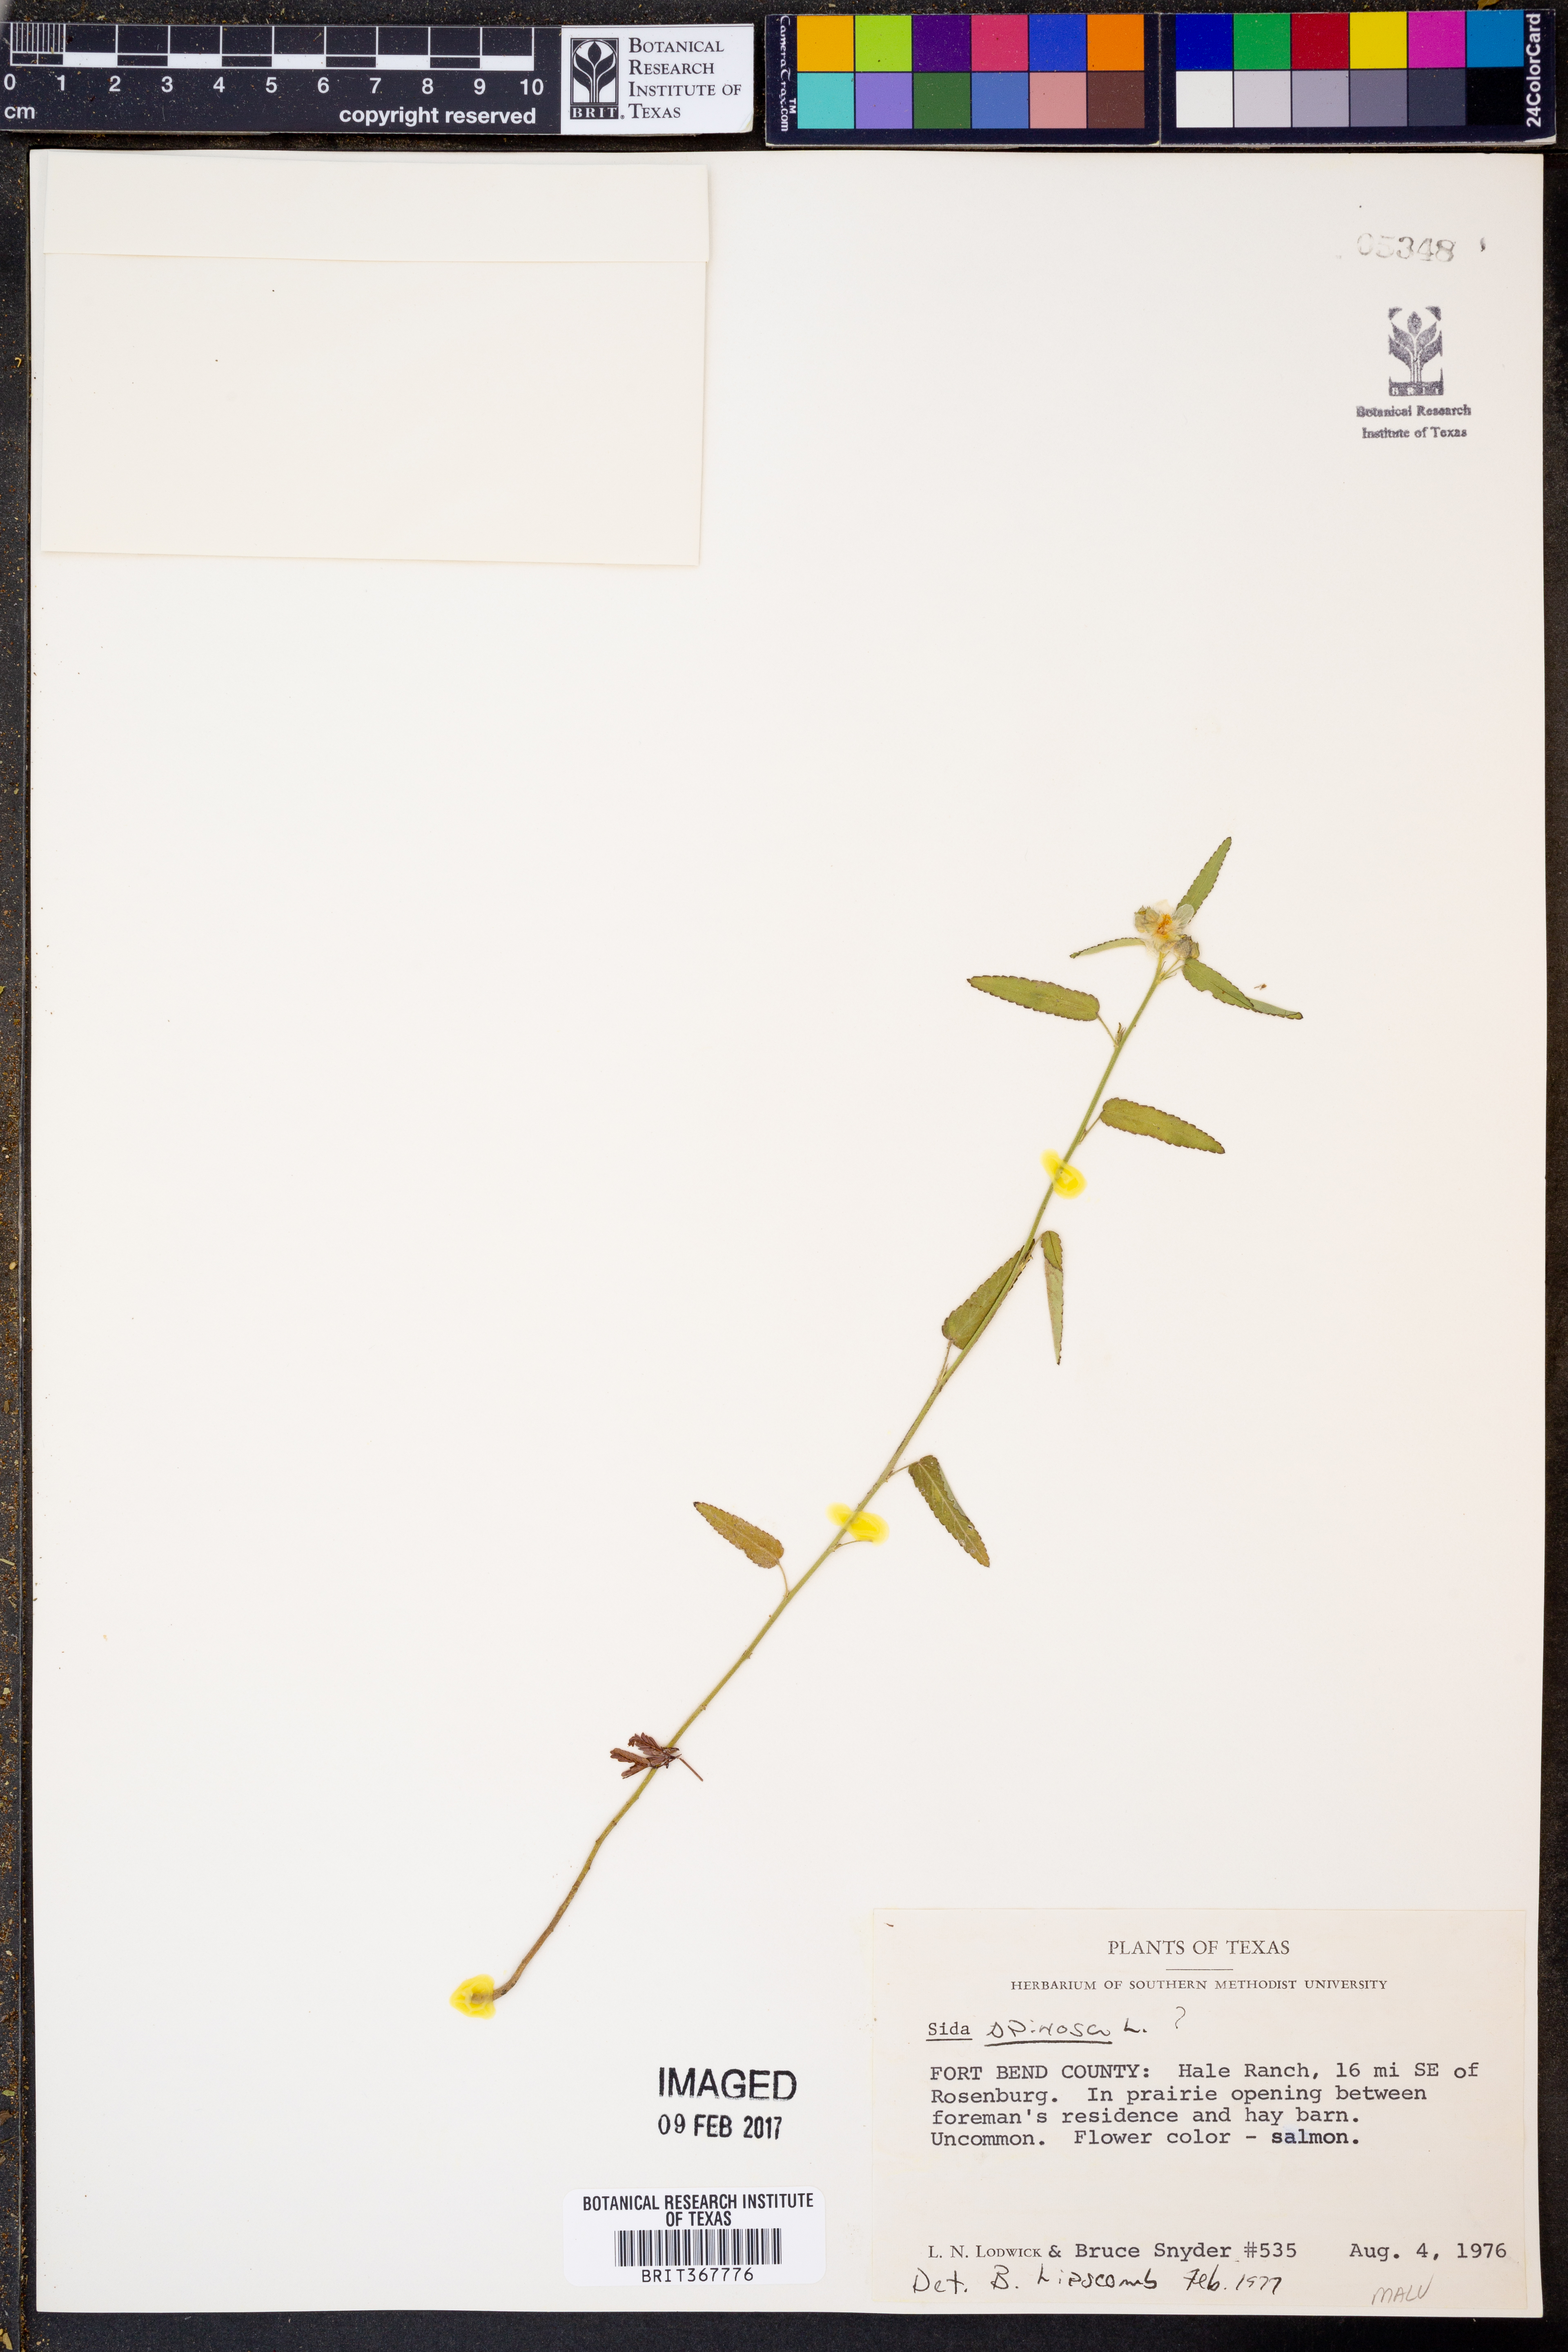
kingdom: Plantae
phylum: Tracheophyta
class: Magnoliopsida
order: Malvales
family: Malvaceae
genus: Sida
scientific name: Sida spinosa
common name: Prickly fanpetals
